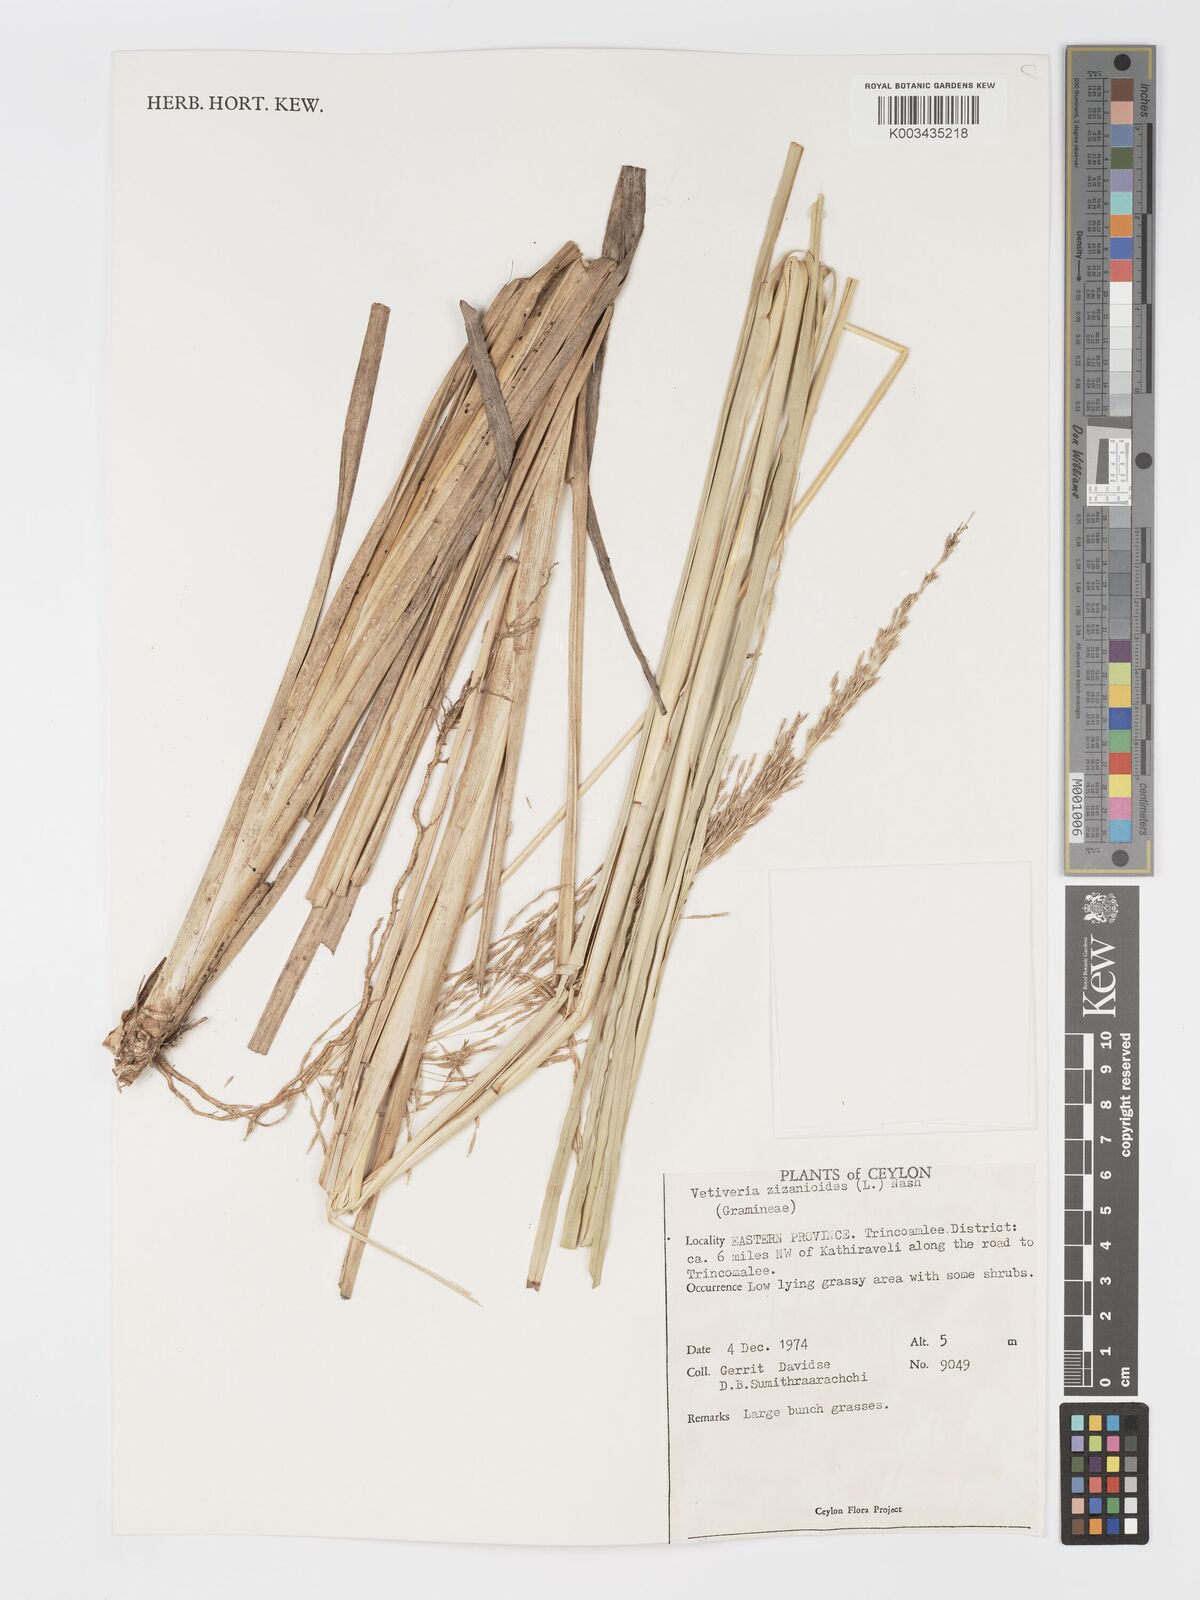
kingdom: Plantae
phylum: Tracheophyta
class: Liliopsida
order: Poales
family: Poaceae
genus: Chrysopogon
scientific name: Chrysopogon zizanioides
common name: False beardgrass
